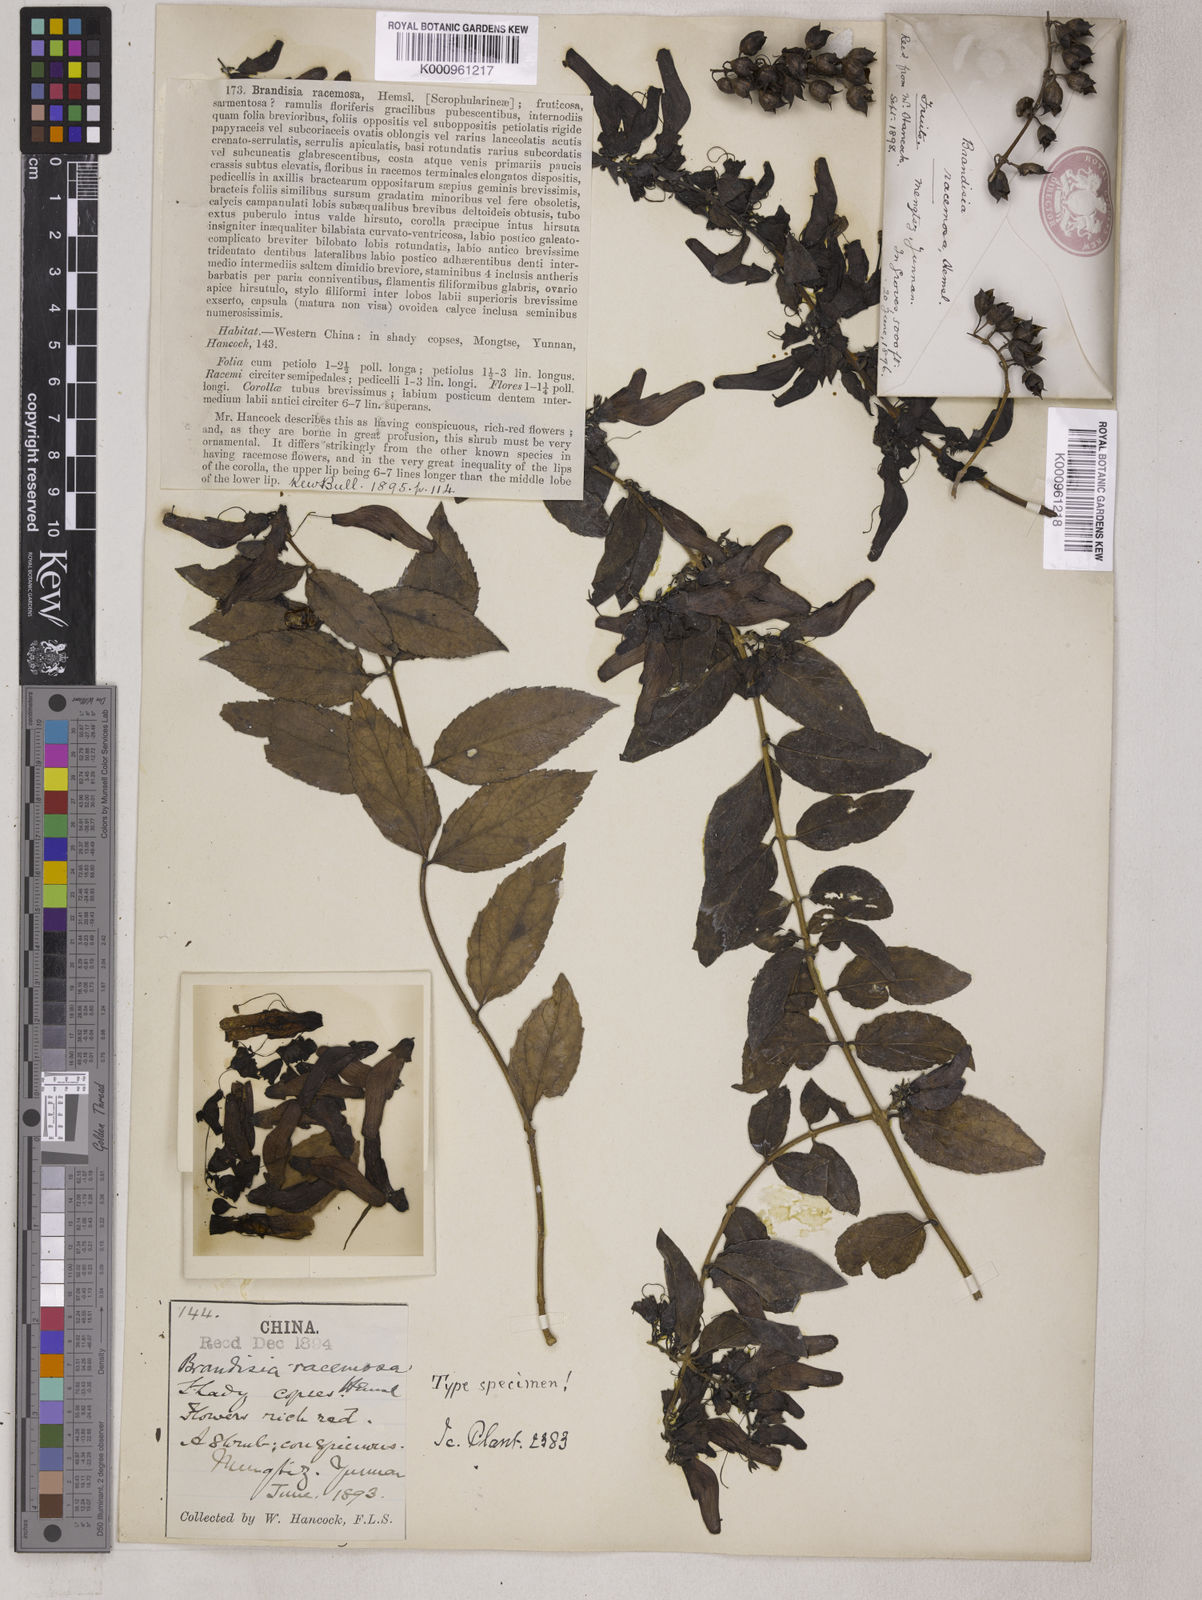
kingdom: Plantae
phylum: Tracheophyta
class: Magnoliopsida
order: Lamiales
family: Orobanchaceae
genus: Brandisia
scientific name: Brandisia racemosa
